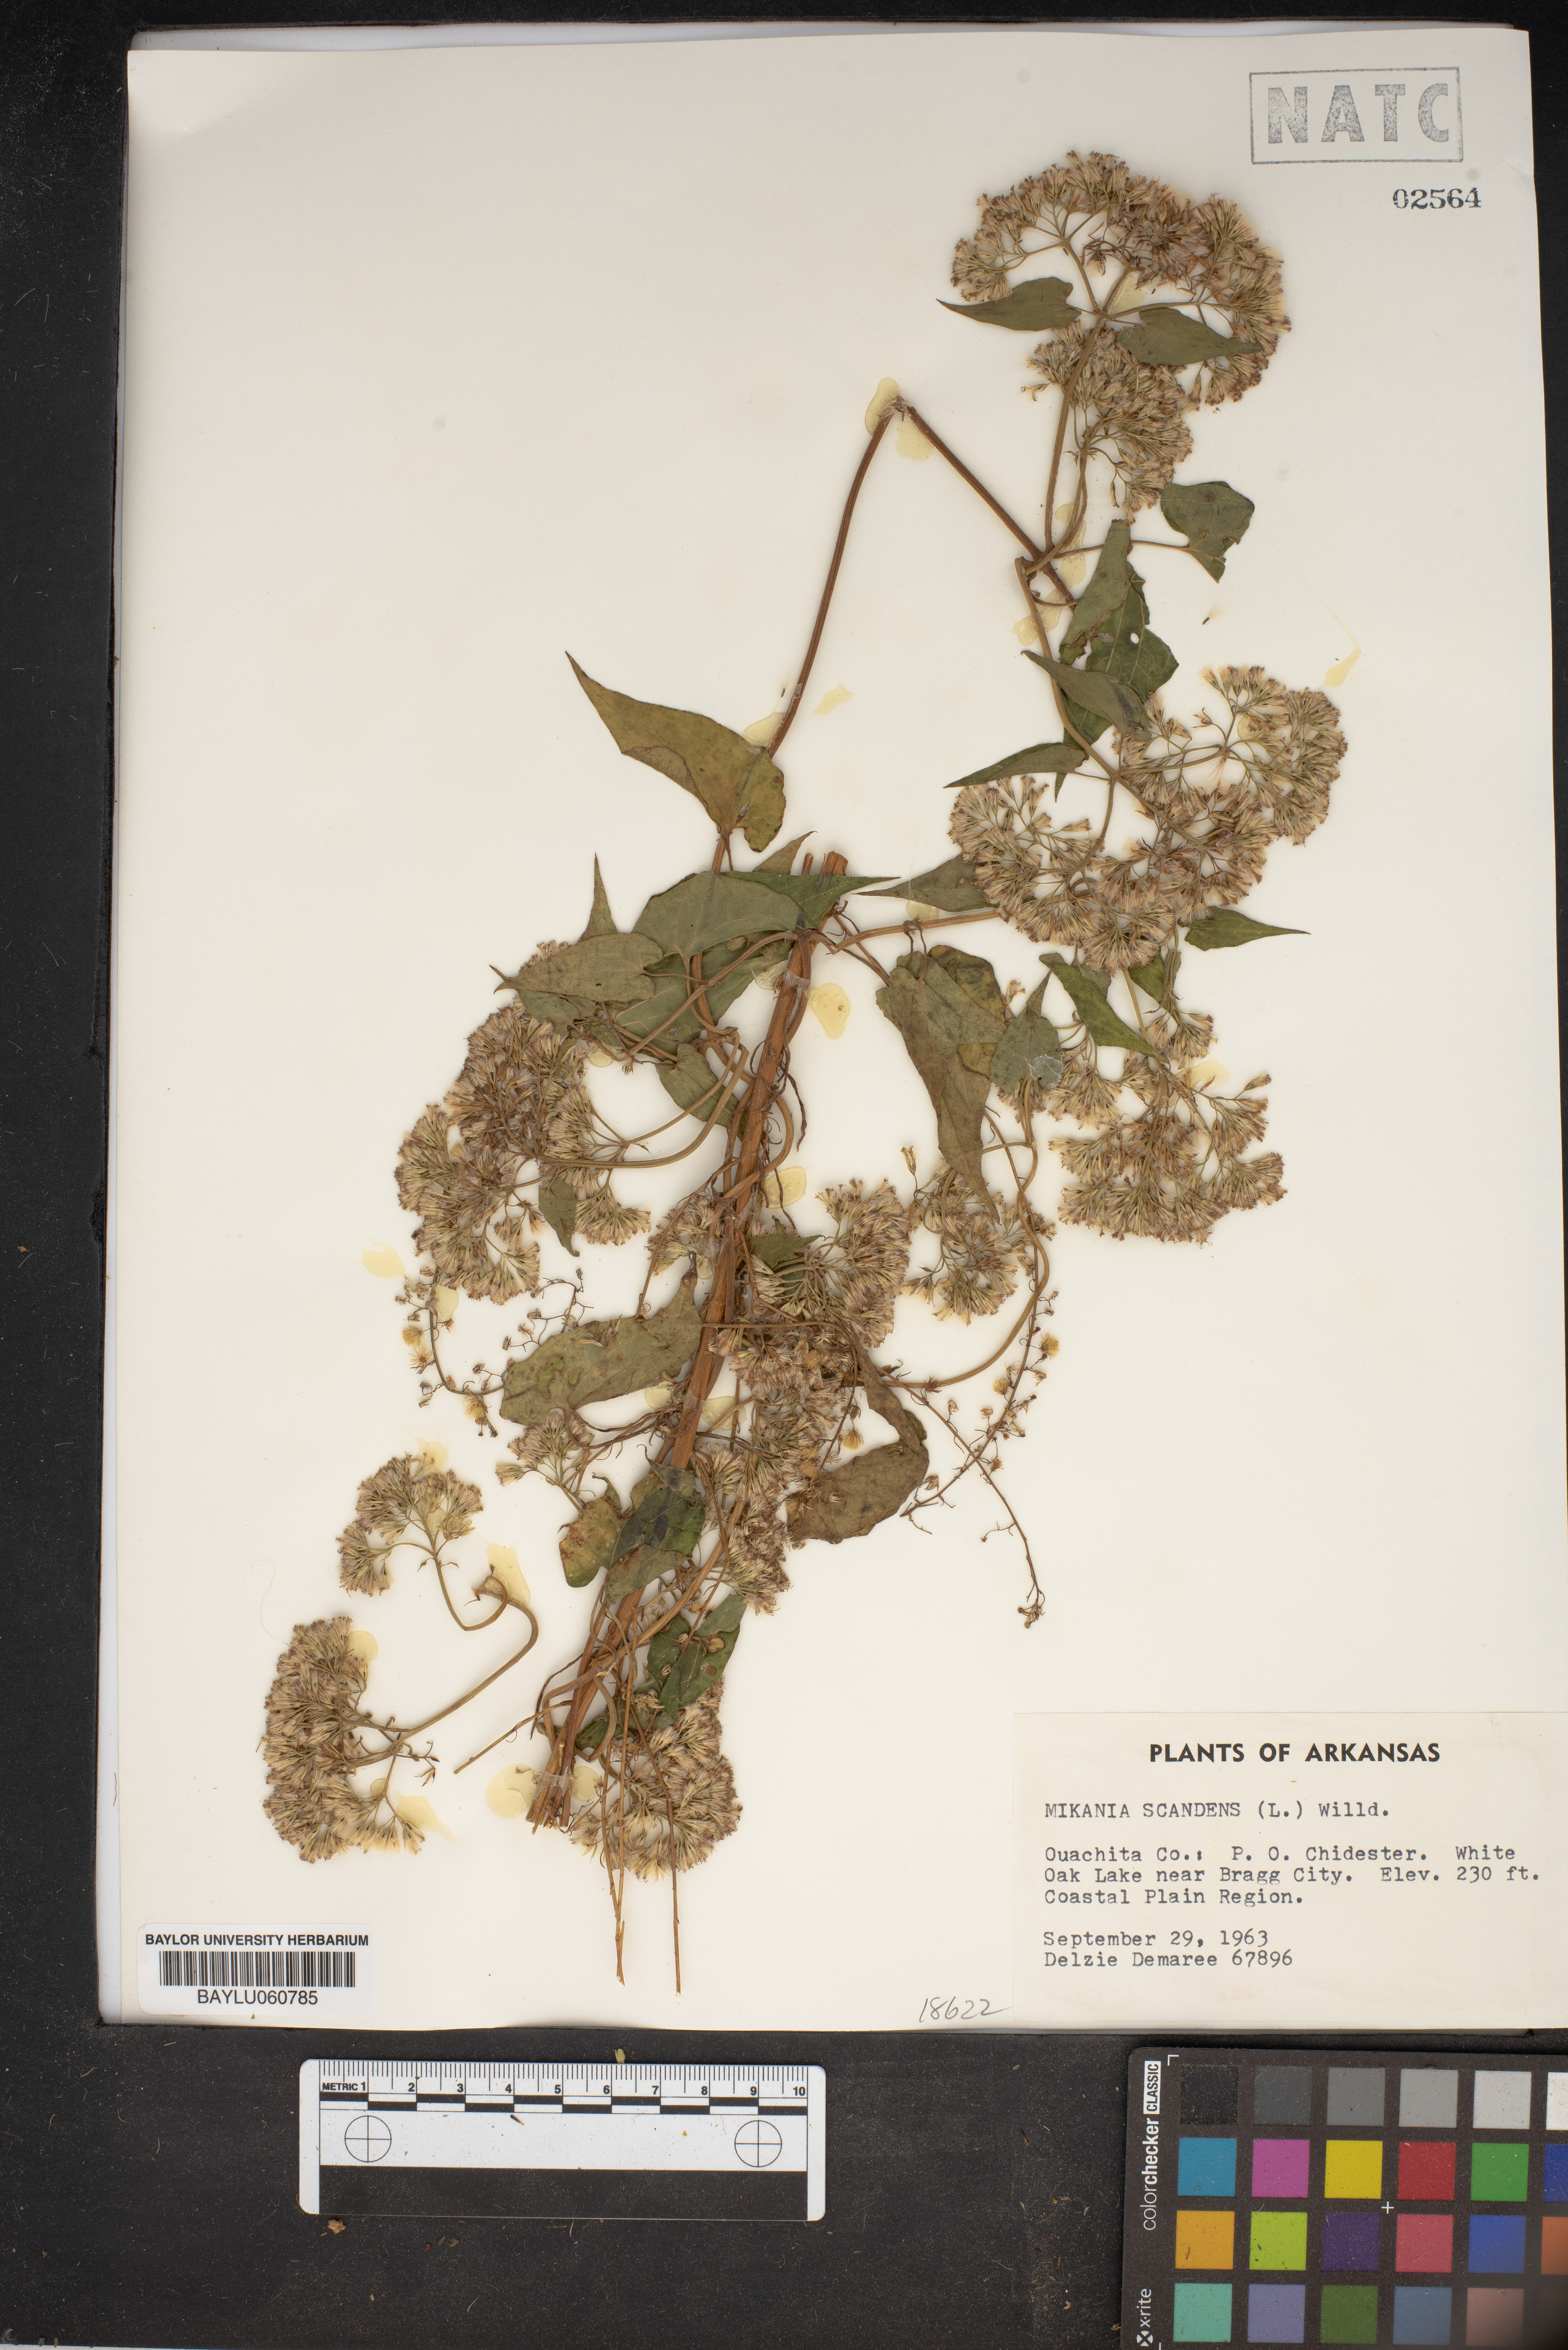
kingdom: Plantae
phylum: Tracheophyta
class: Magnoliopsida
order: Asterales
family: Asteraceae
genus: Mikania
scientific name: Mikania scandens
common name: Climbing hempvine
